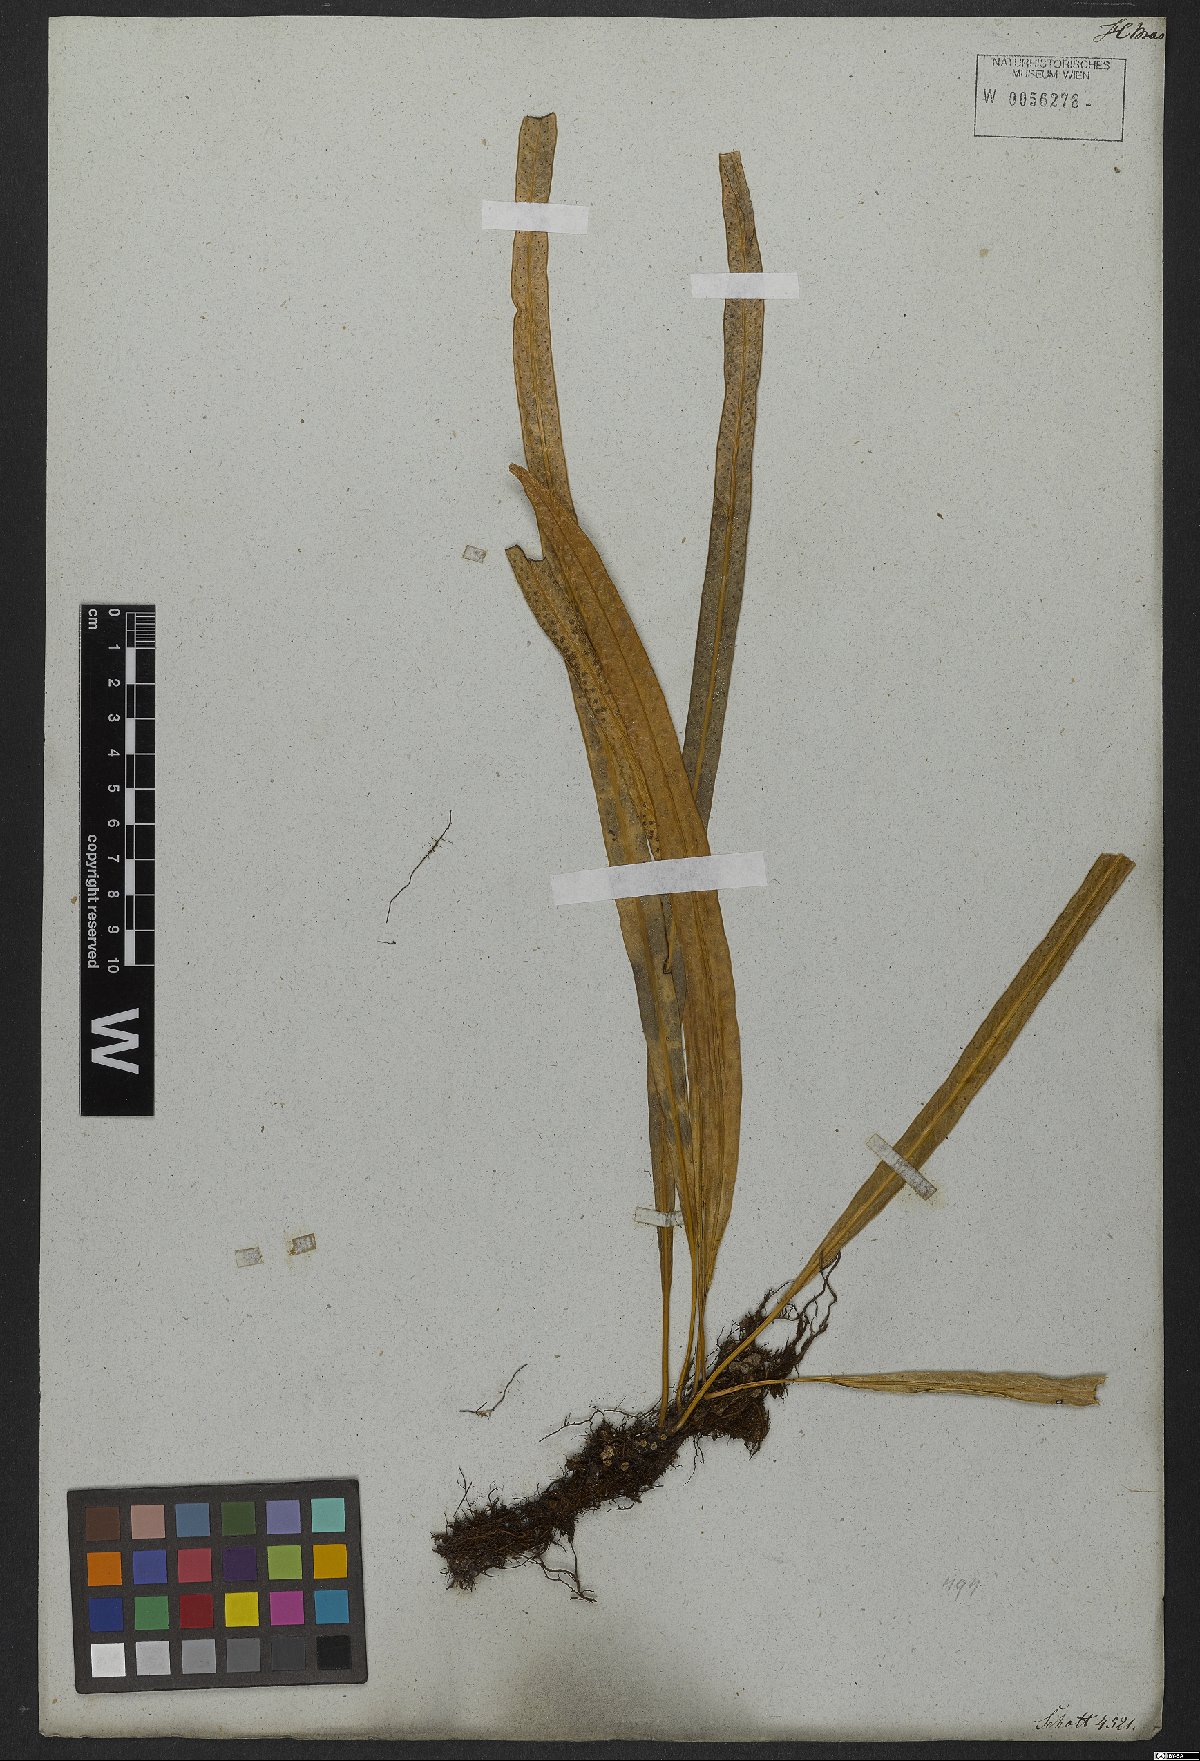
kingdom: Plantae
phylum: Tracheophyta
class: Polypodiopsida
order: Polypodiales
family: Polypodiaceae
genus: Campyloneurum
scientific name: Campyloneurum ensifolium
